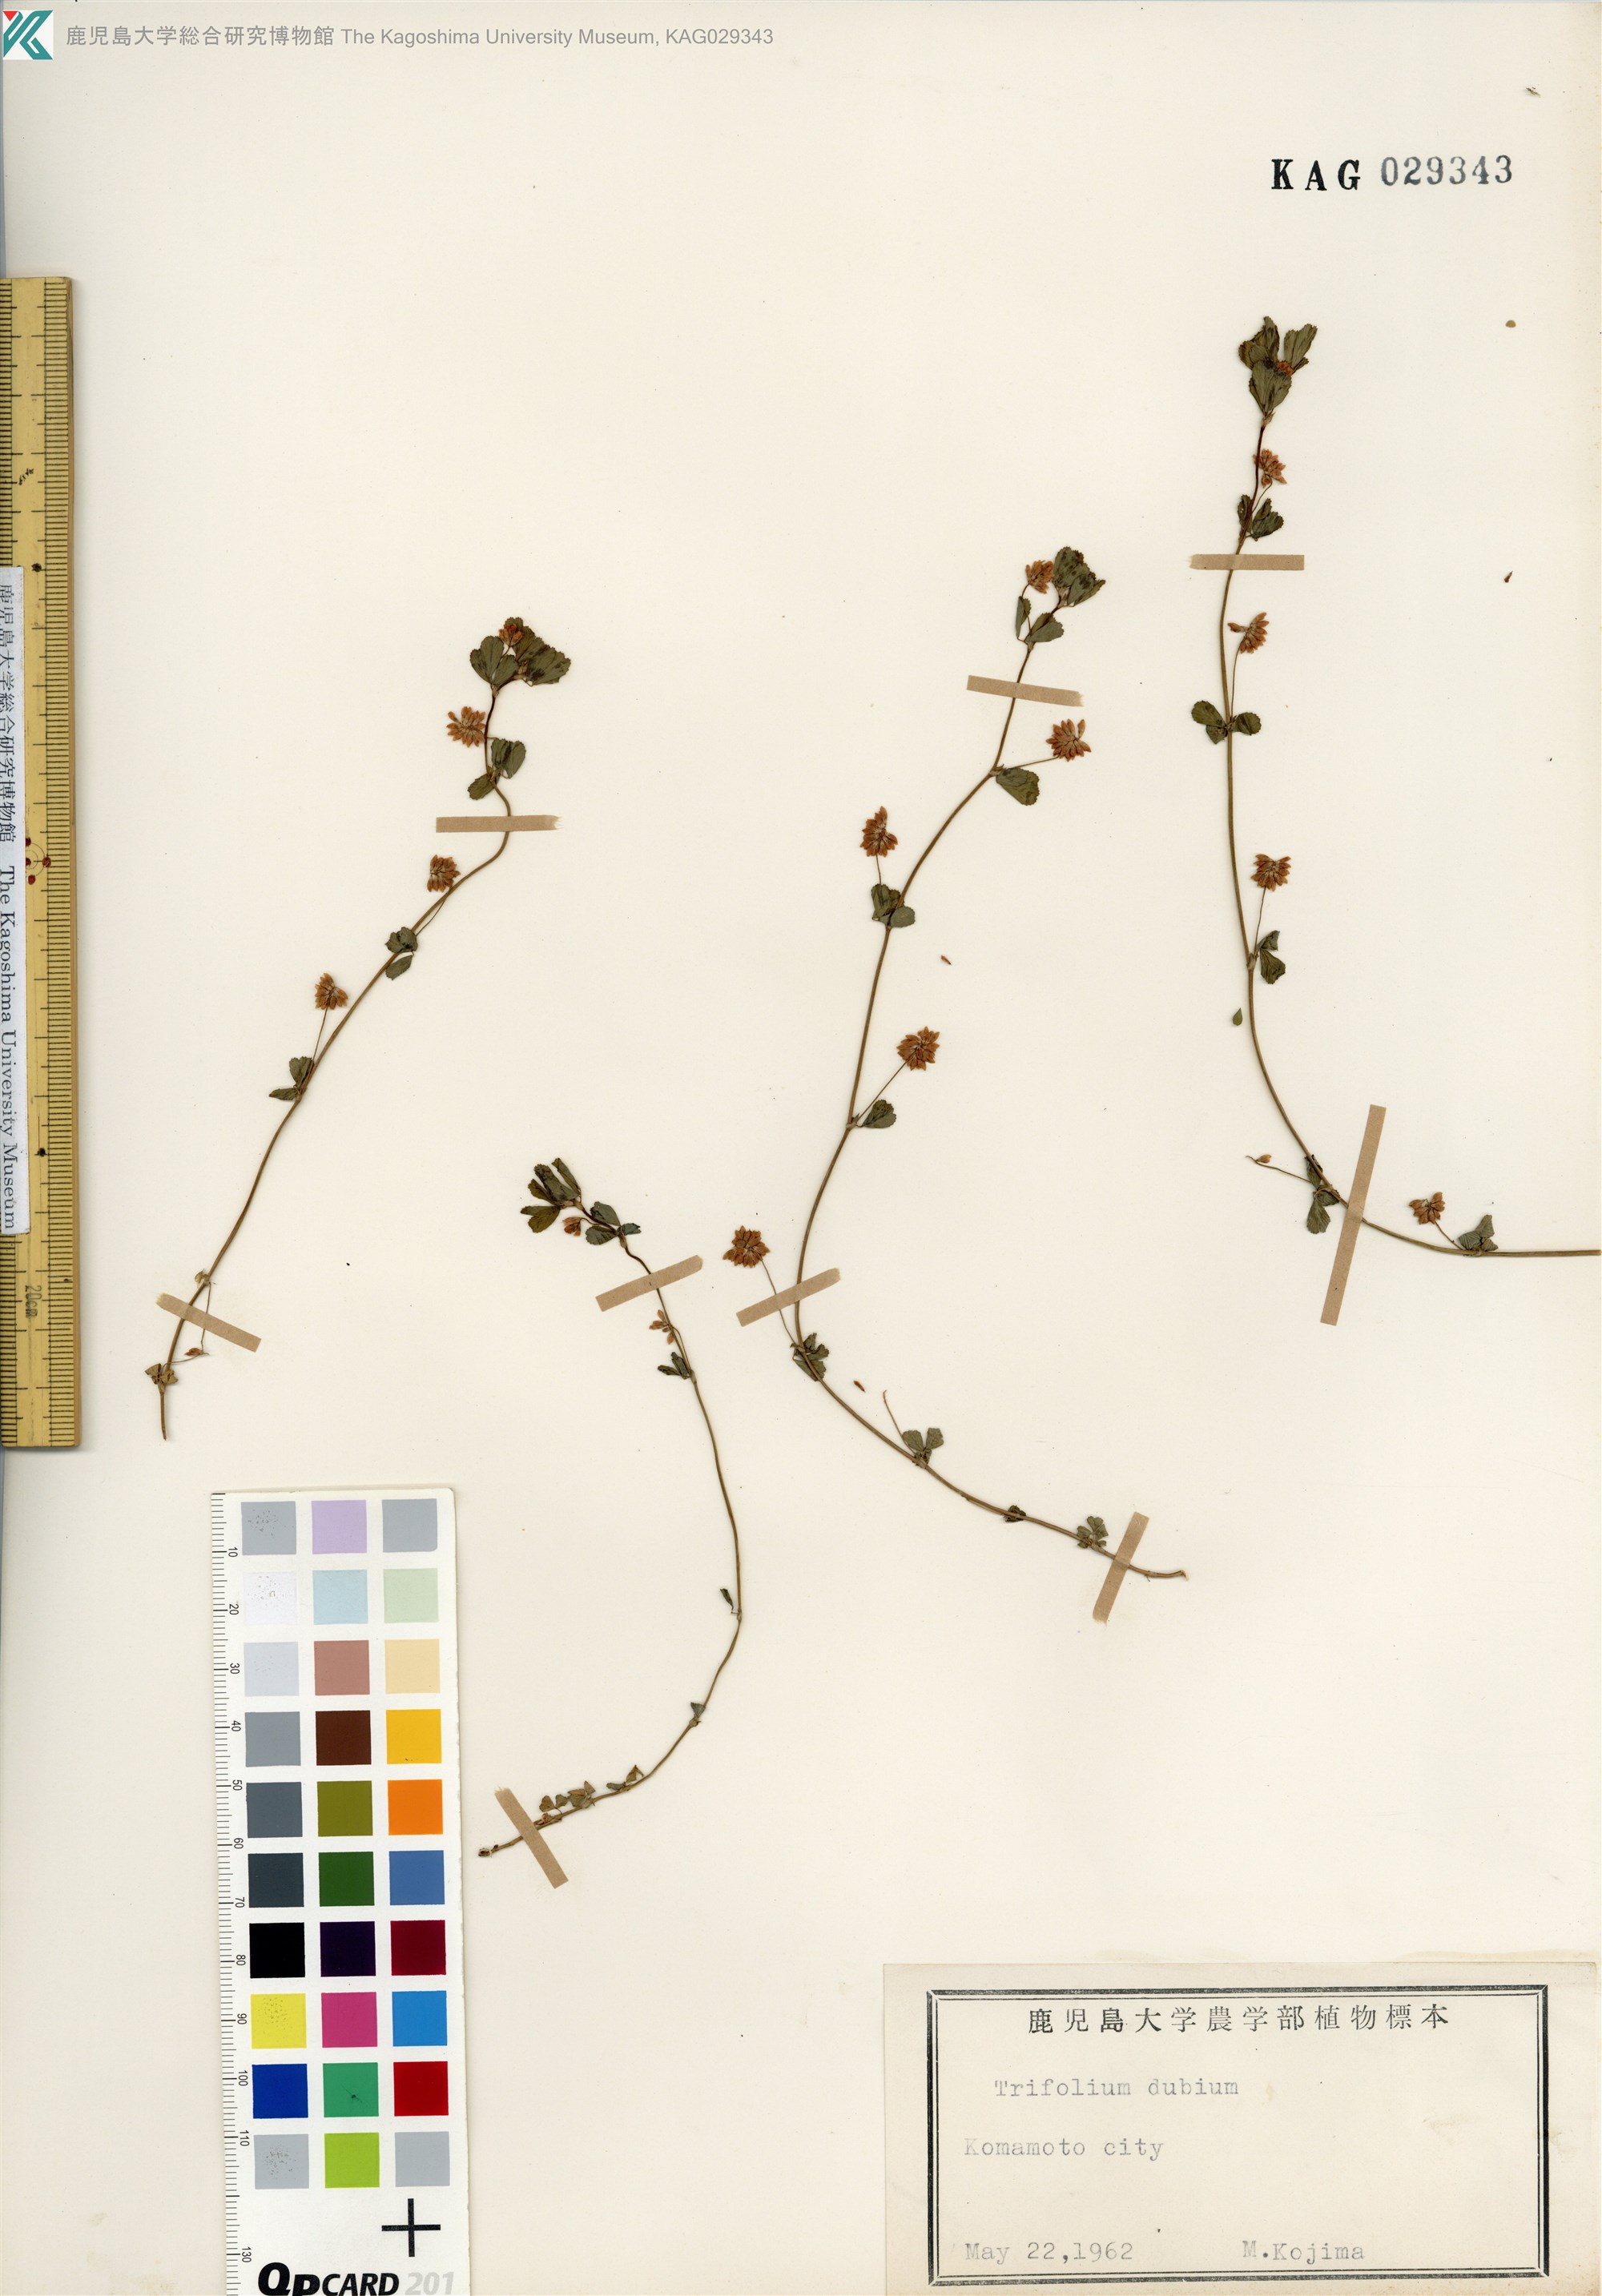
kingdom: Plantae
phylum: Tracheophyta
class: Magnoliopsida
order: Fabales
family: Fabaceae
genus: Trifolium
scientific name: Trifolium dubium
